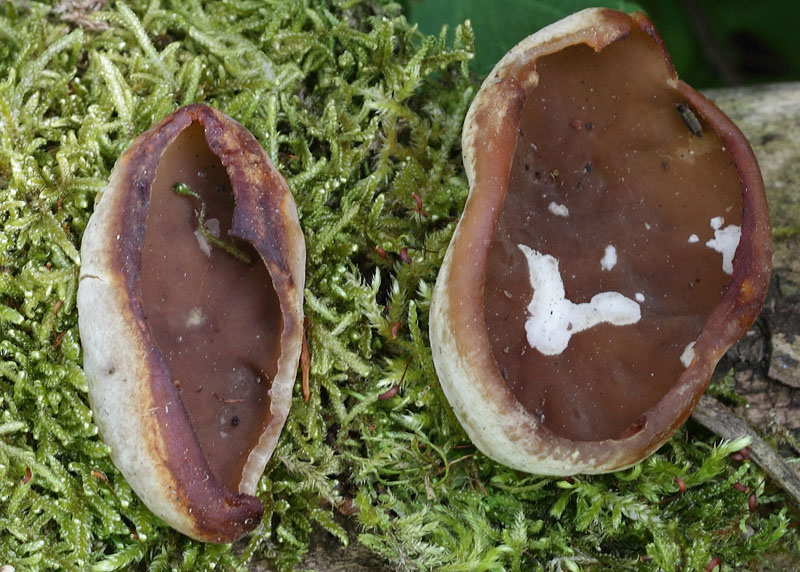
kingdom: Fungi
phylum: Ascomycota
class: Pezizomycetes
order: Pezizales
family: Pezizaceae
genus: Peziza
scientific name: Peziza varia
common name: Ved-bægersvamp
